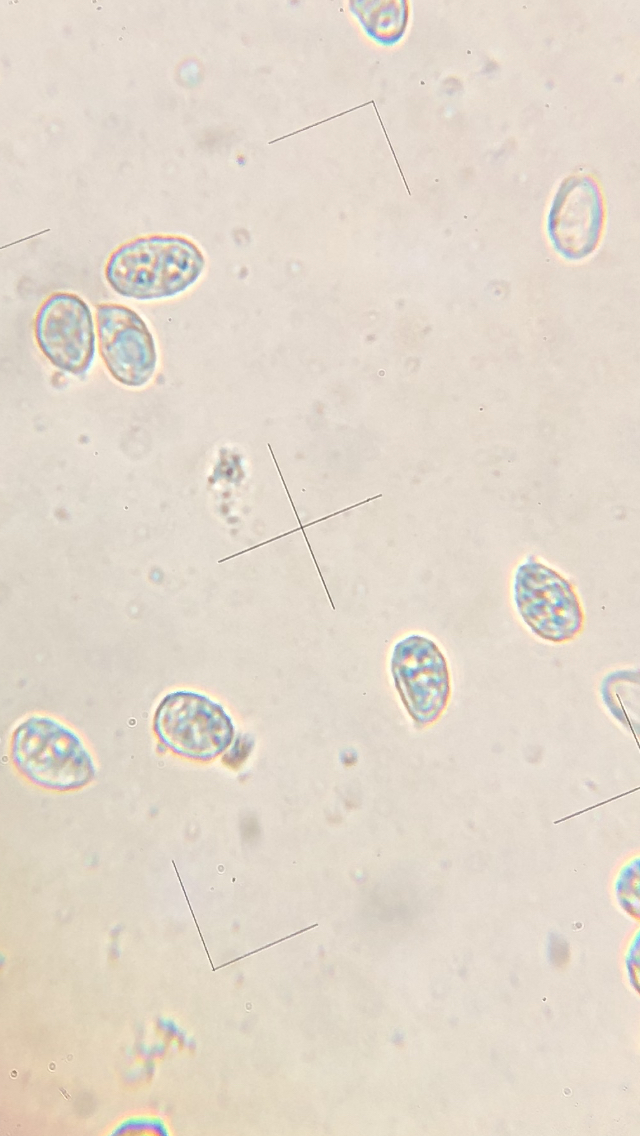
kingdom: Fungi
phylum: Basidiomycota
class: Agaricomycetes
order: Agaricales
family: Tricholomataceae
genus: Melanoleuca
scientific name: Melanoleuca grammopodia
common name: stribestokket munkehat
